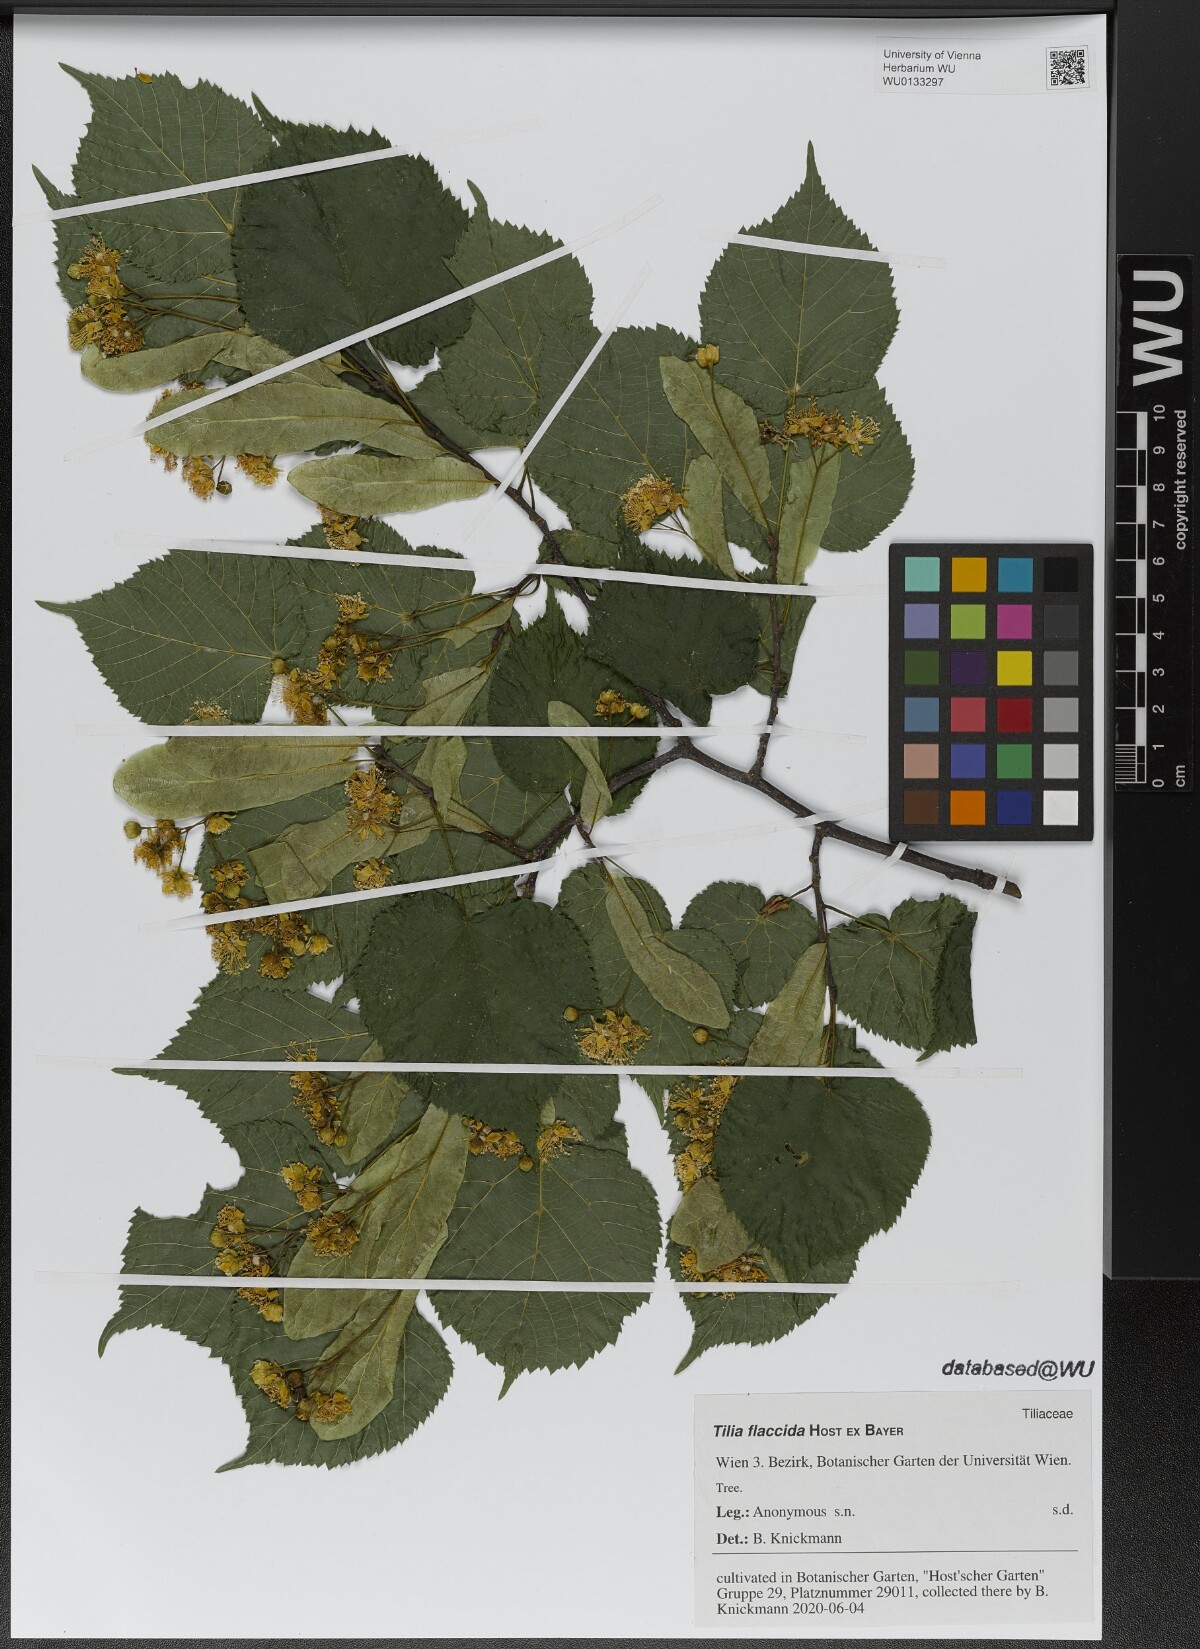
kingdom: Plantae
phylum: Tracheophyta
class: Magnoliopsida
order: Malvales
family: Malvaceae
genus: Tilia
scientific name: Tilia flaccida
